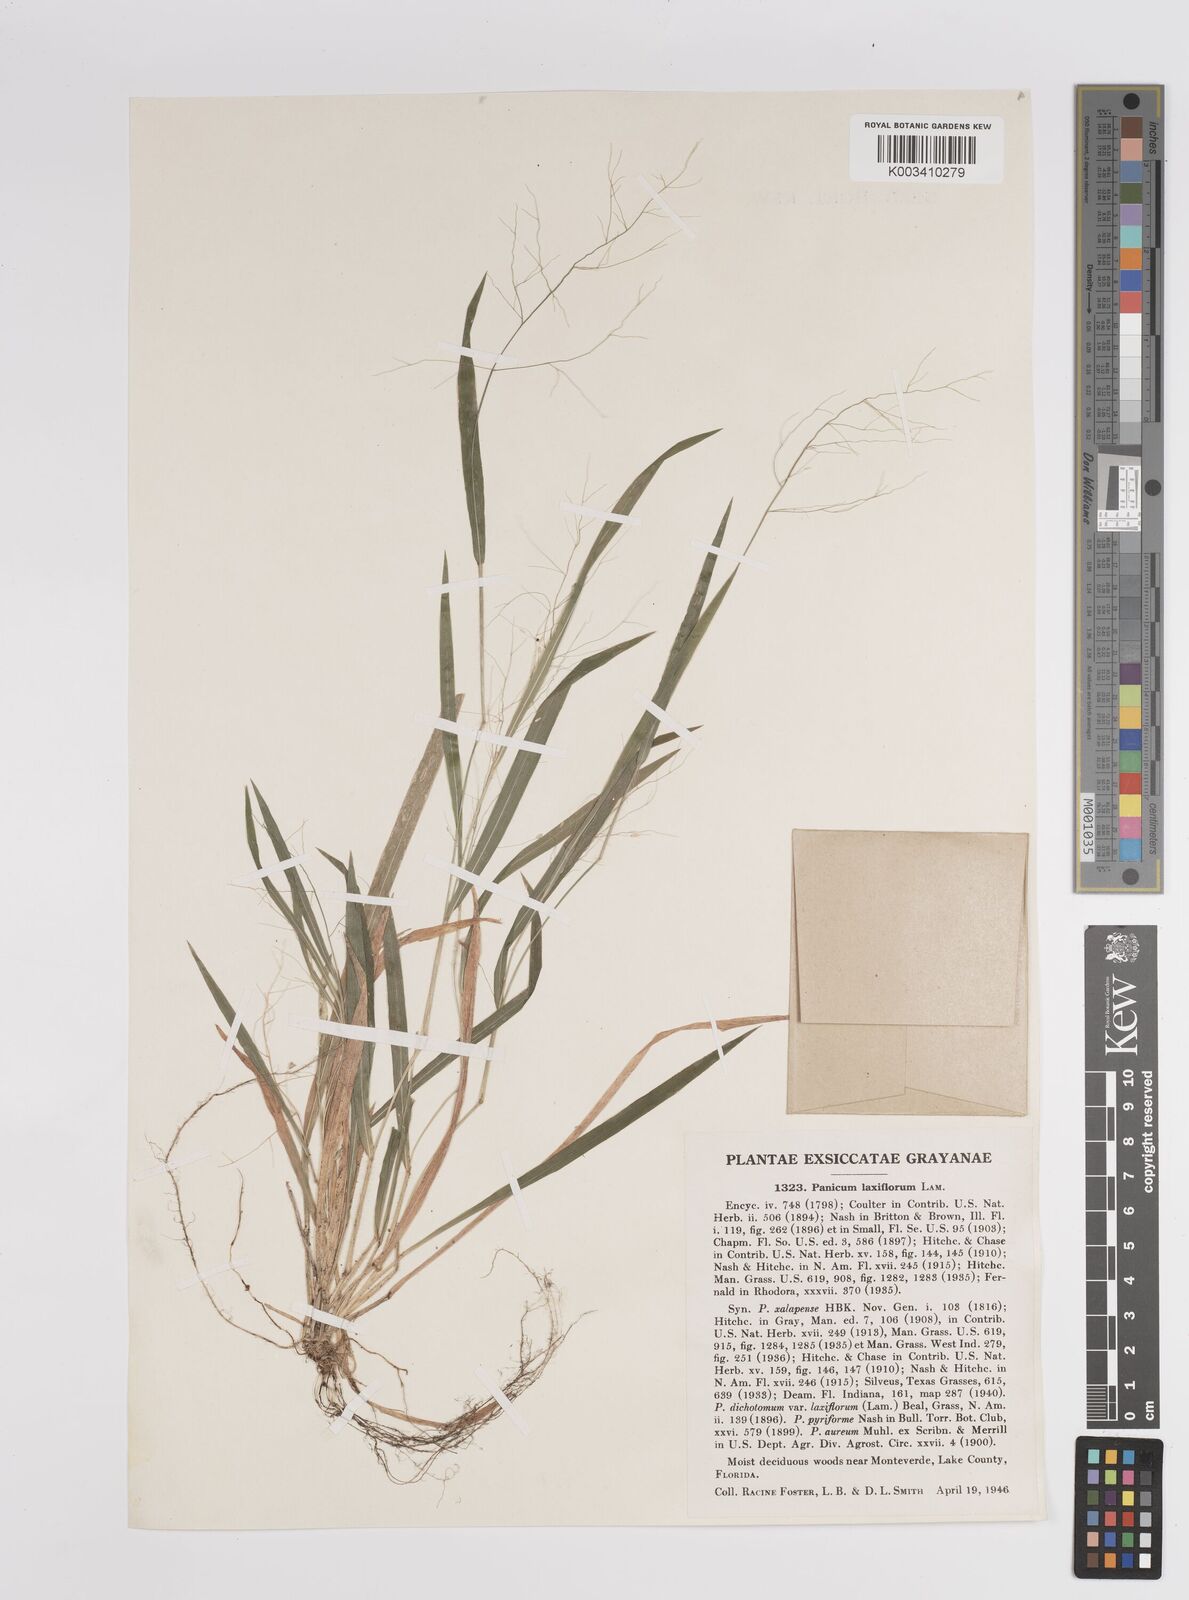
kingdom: Plantae
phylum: Tracheophyta
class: Liliopsida
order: Poales
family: Poaceae
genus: Dichanthelium
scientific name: Dichanthelium laxiflorum
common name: Soft-tuft panic grass
